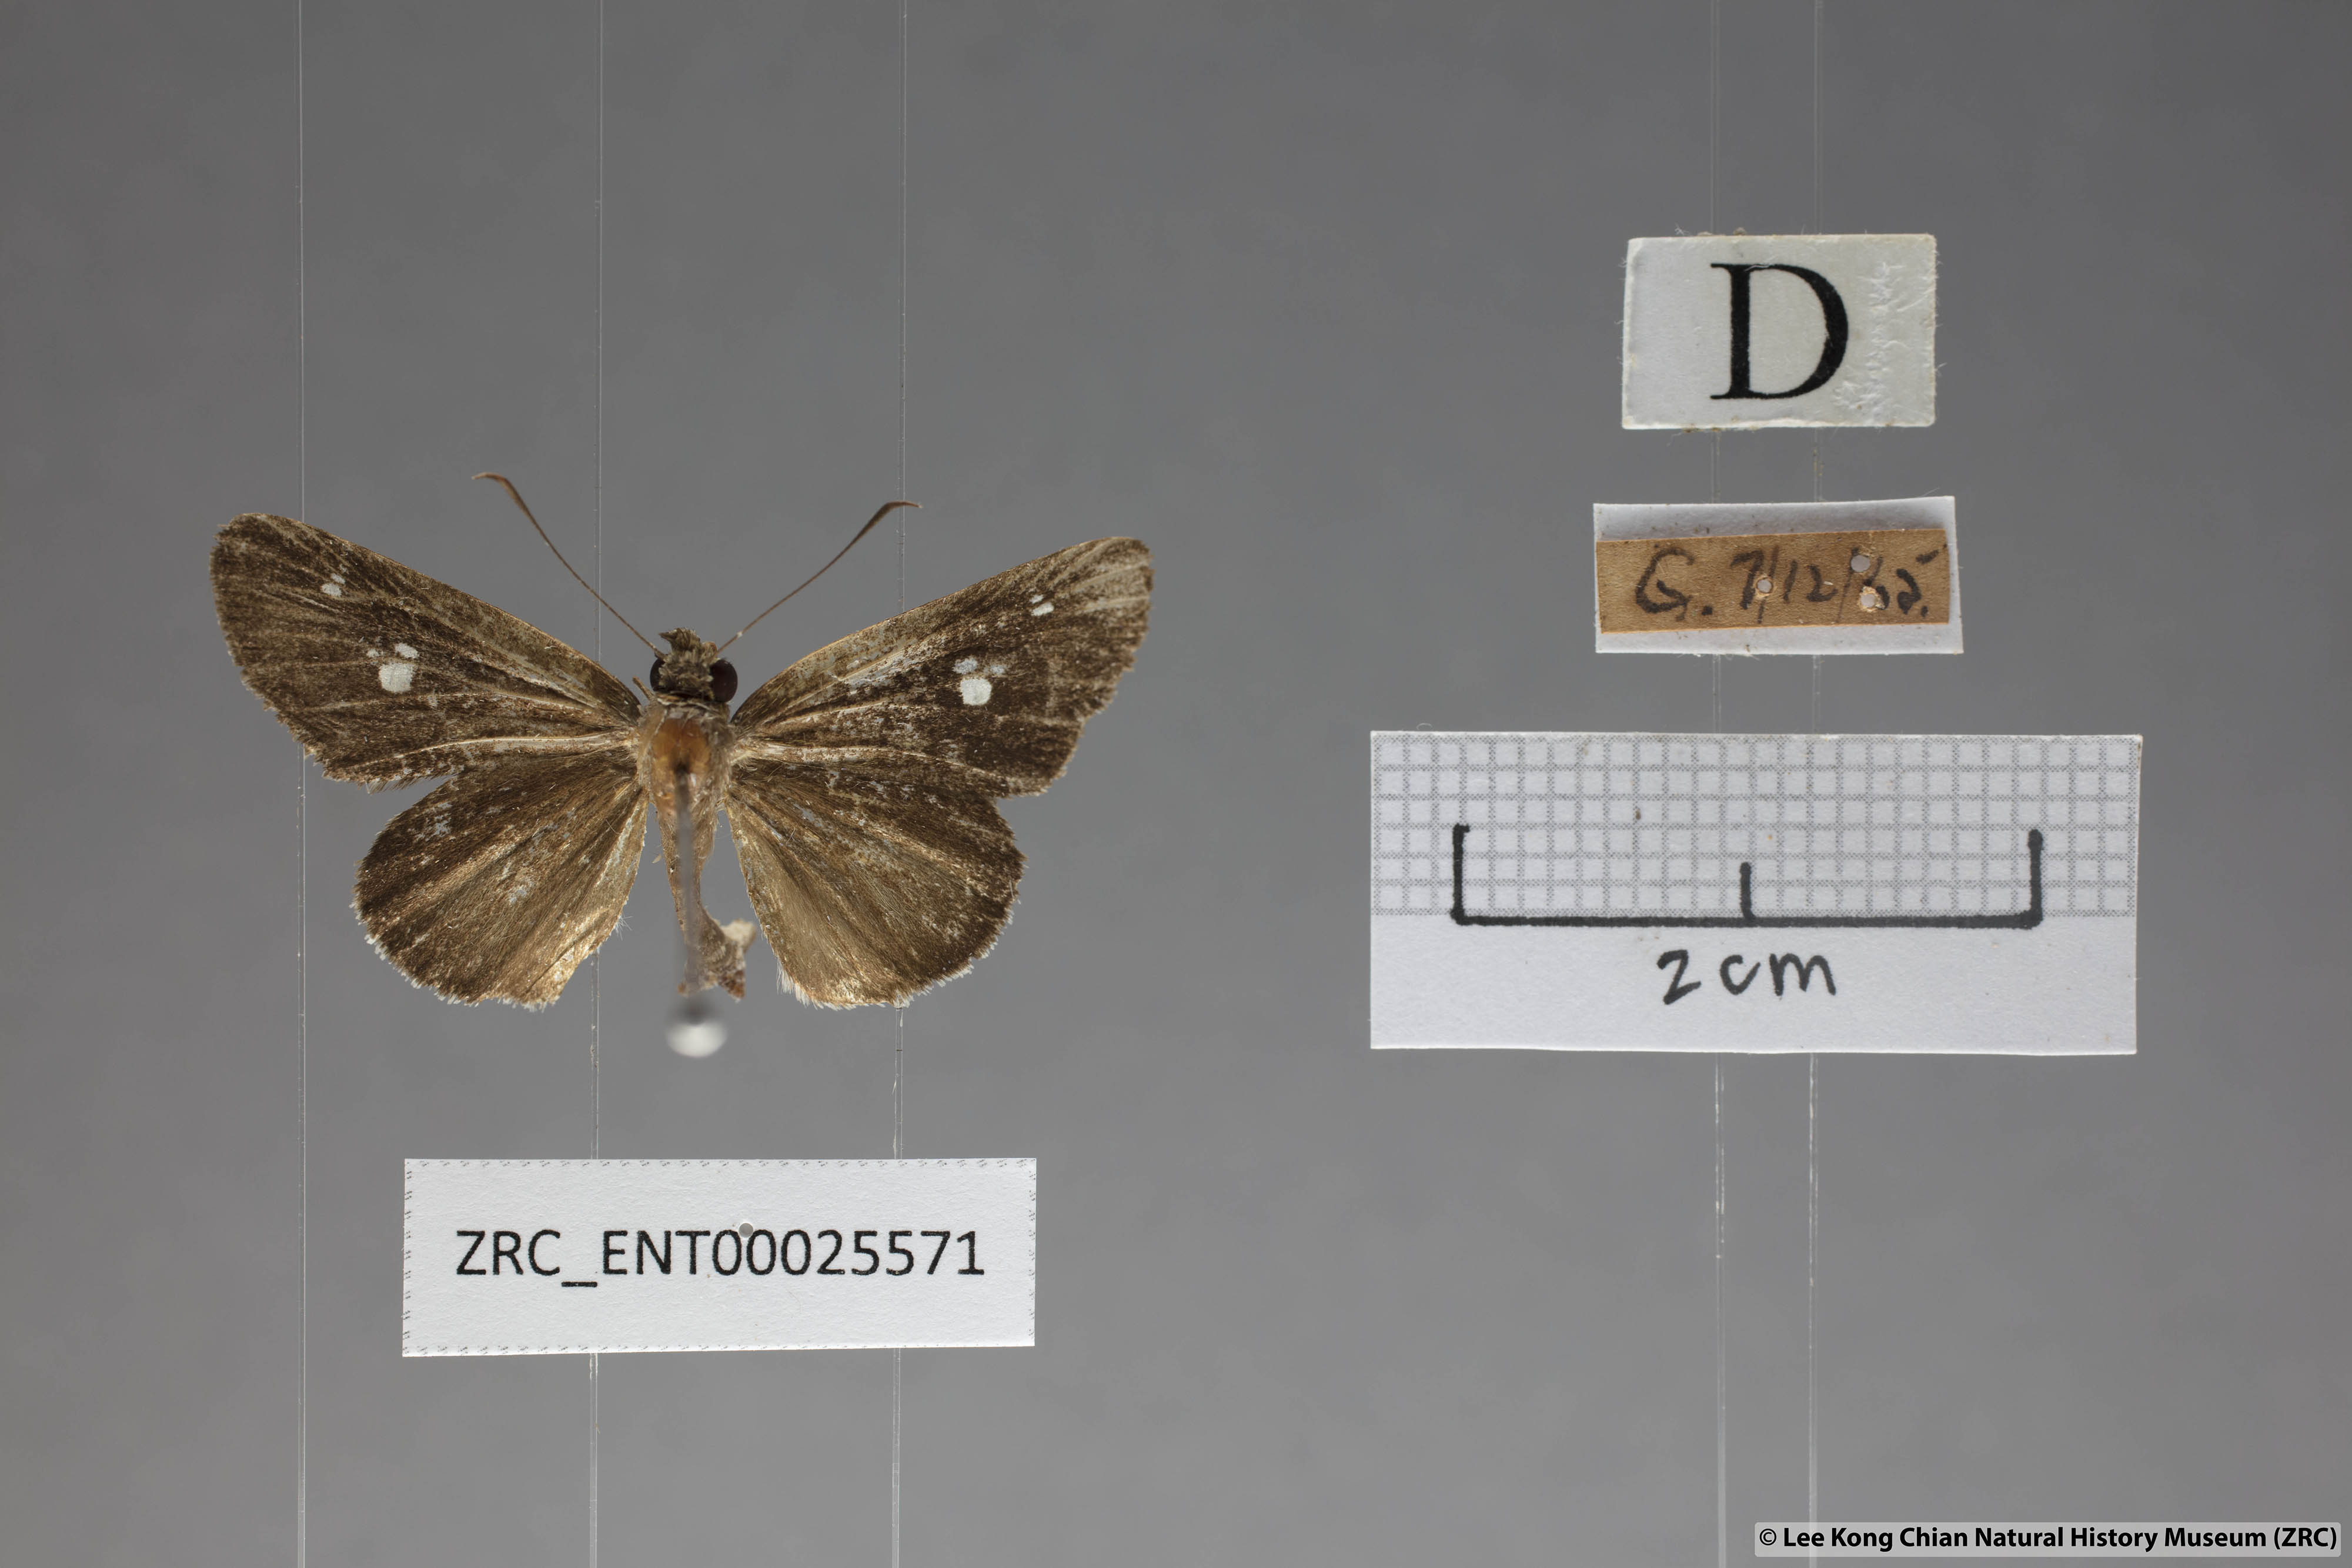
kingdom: Animalia
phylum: Arthropoda
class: Insecta
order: Lepidoptera
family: Hesperiidae
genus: Suada
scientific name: Suada swerga
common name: Grass bob
